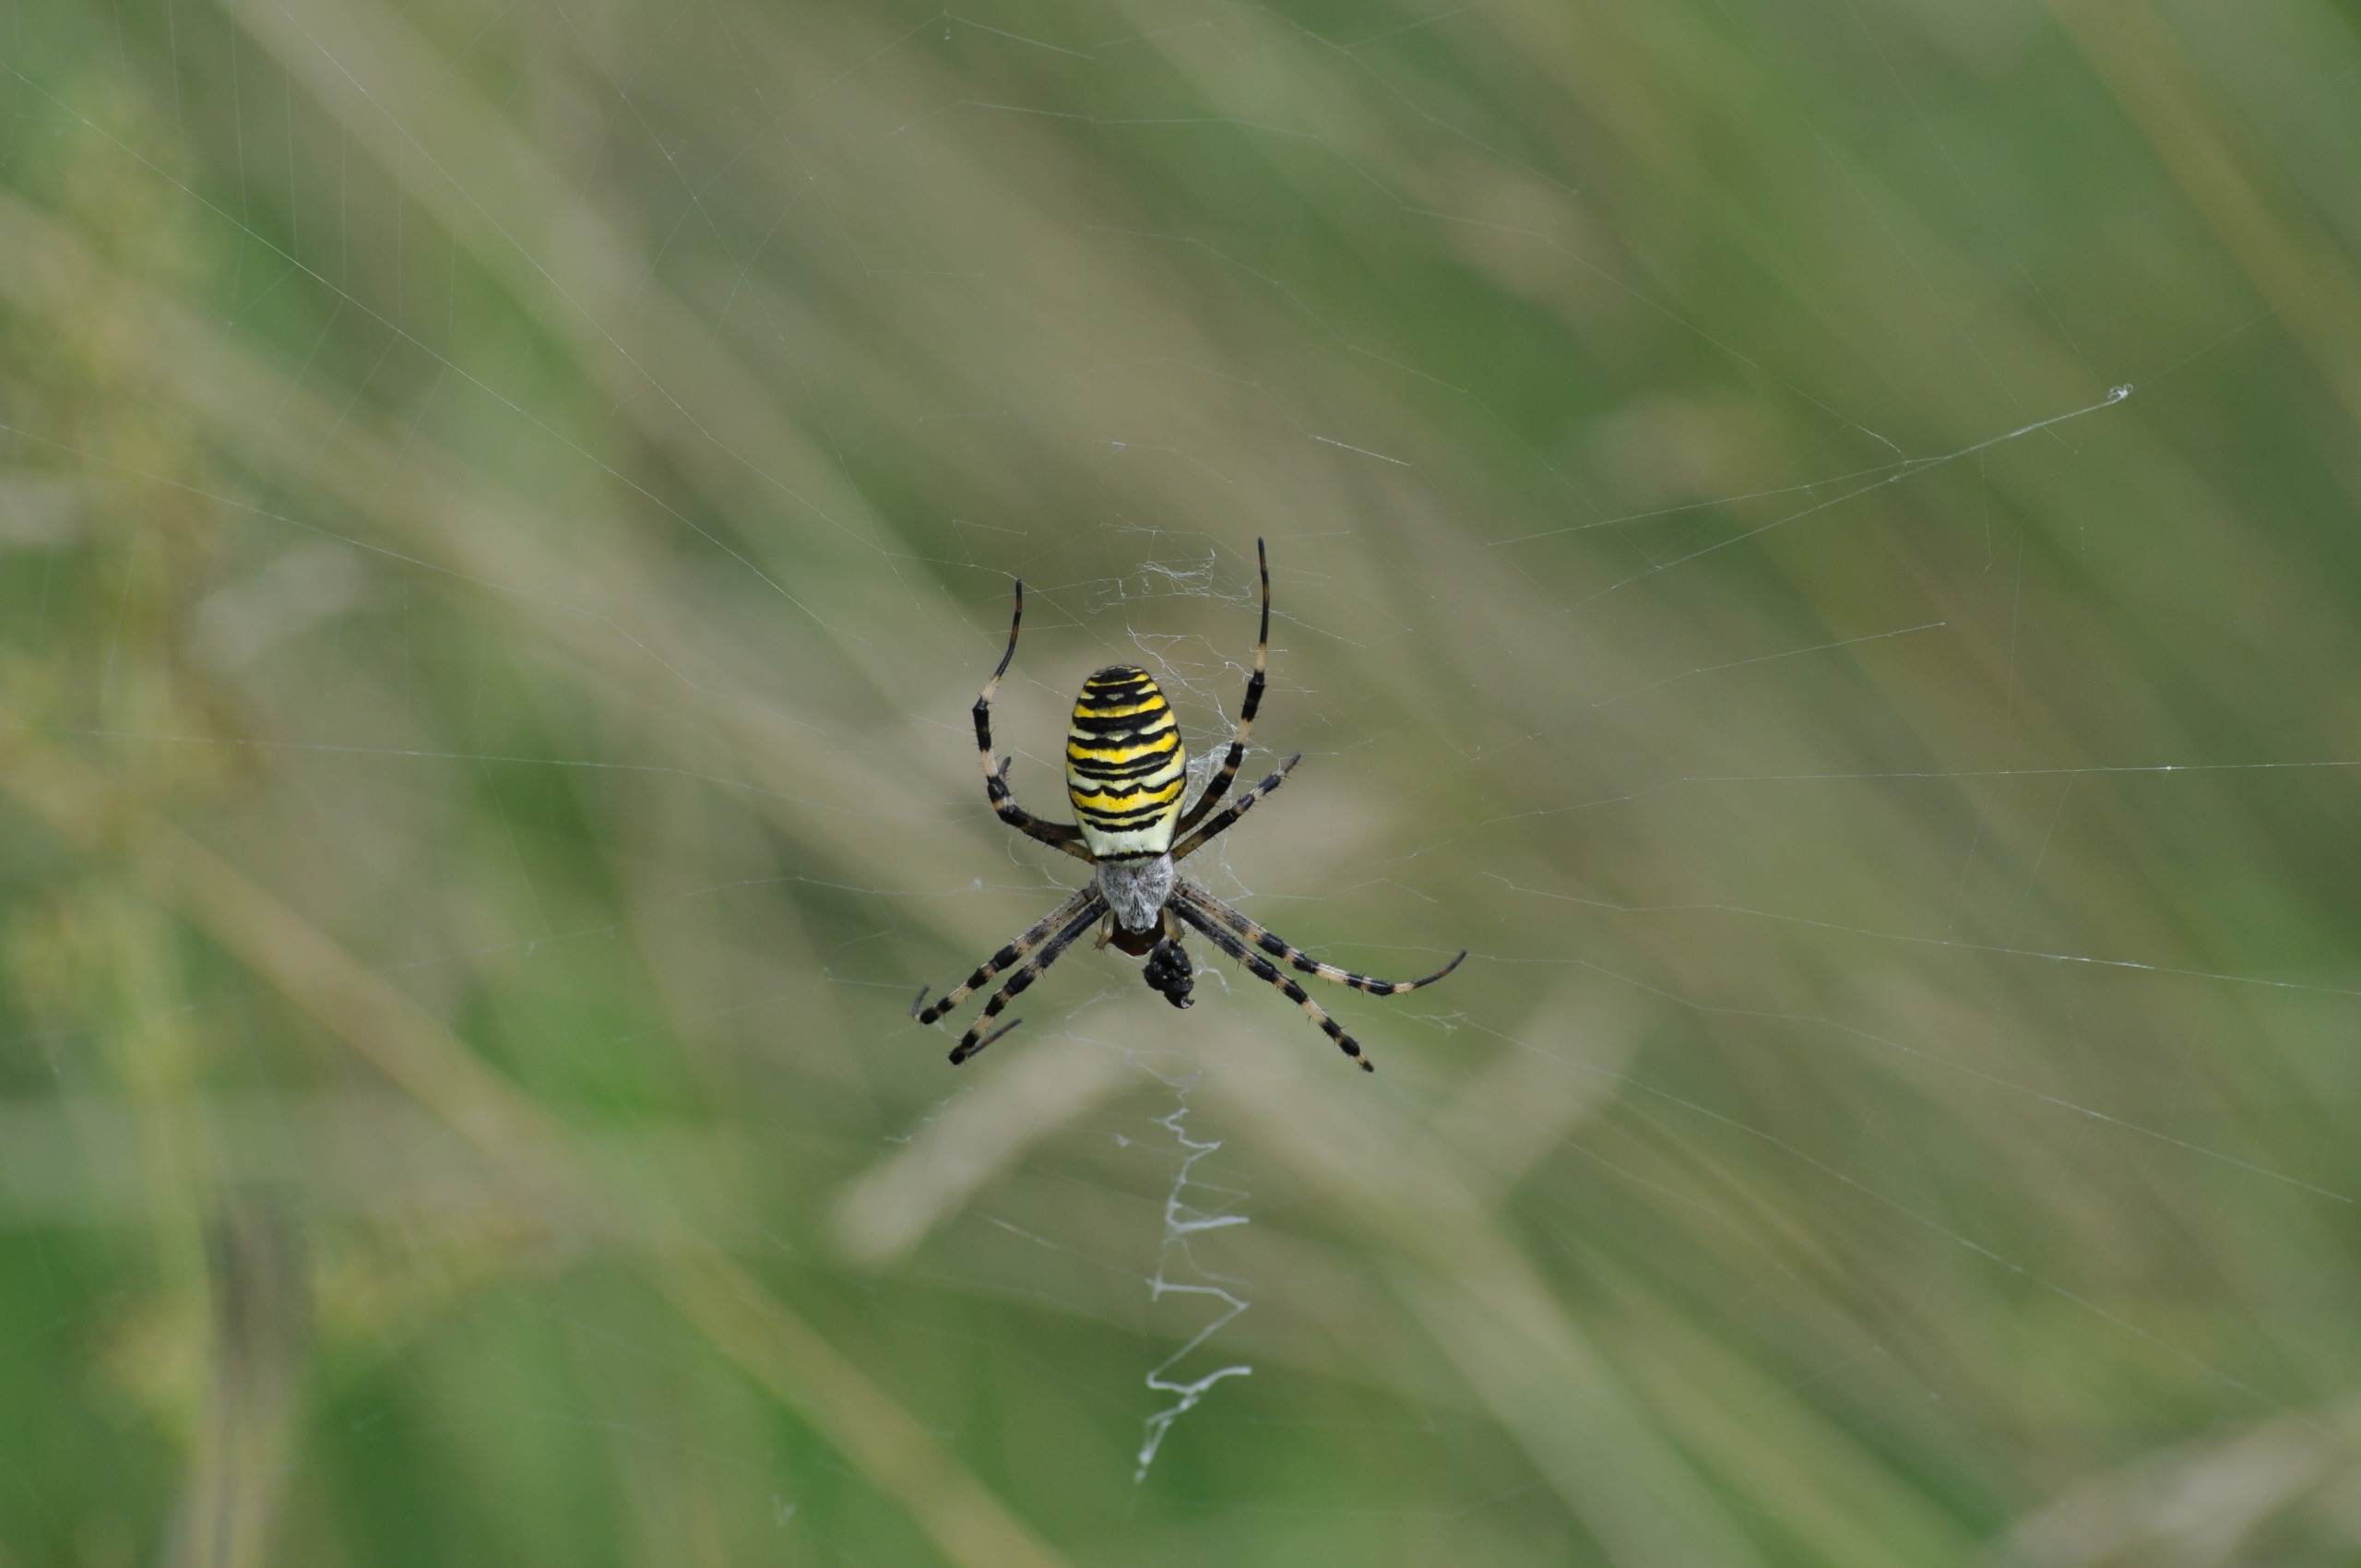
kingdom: Animalia
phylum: Arthropoda
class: Arachnida
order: Araneae
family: Araneidae
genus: Argiope
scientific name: Argiope bruennichi
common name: Hvepseedderkop
